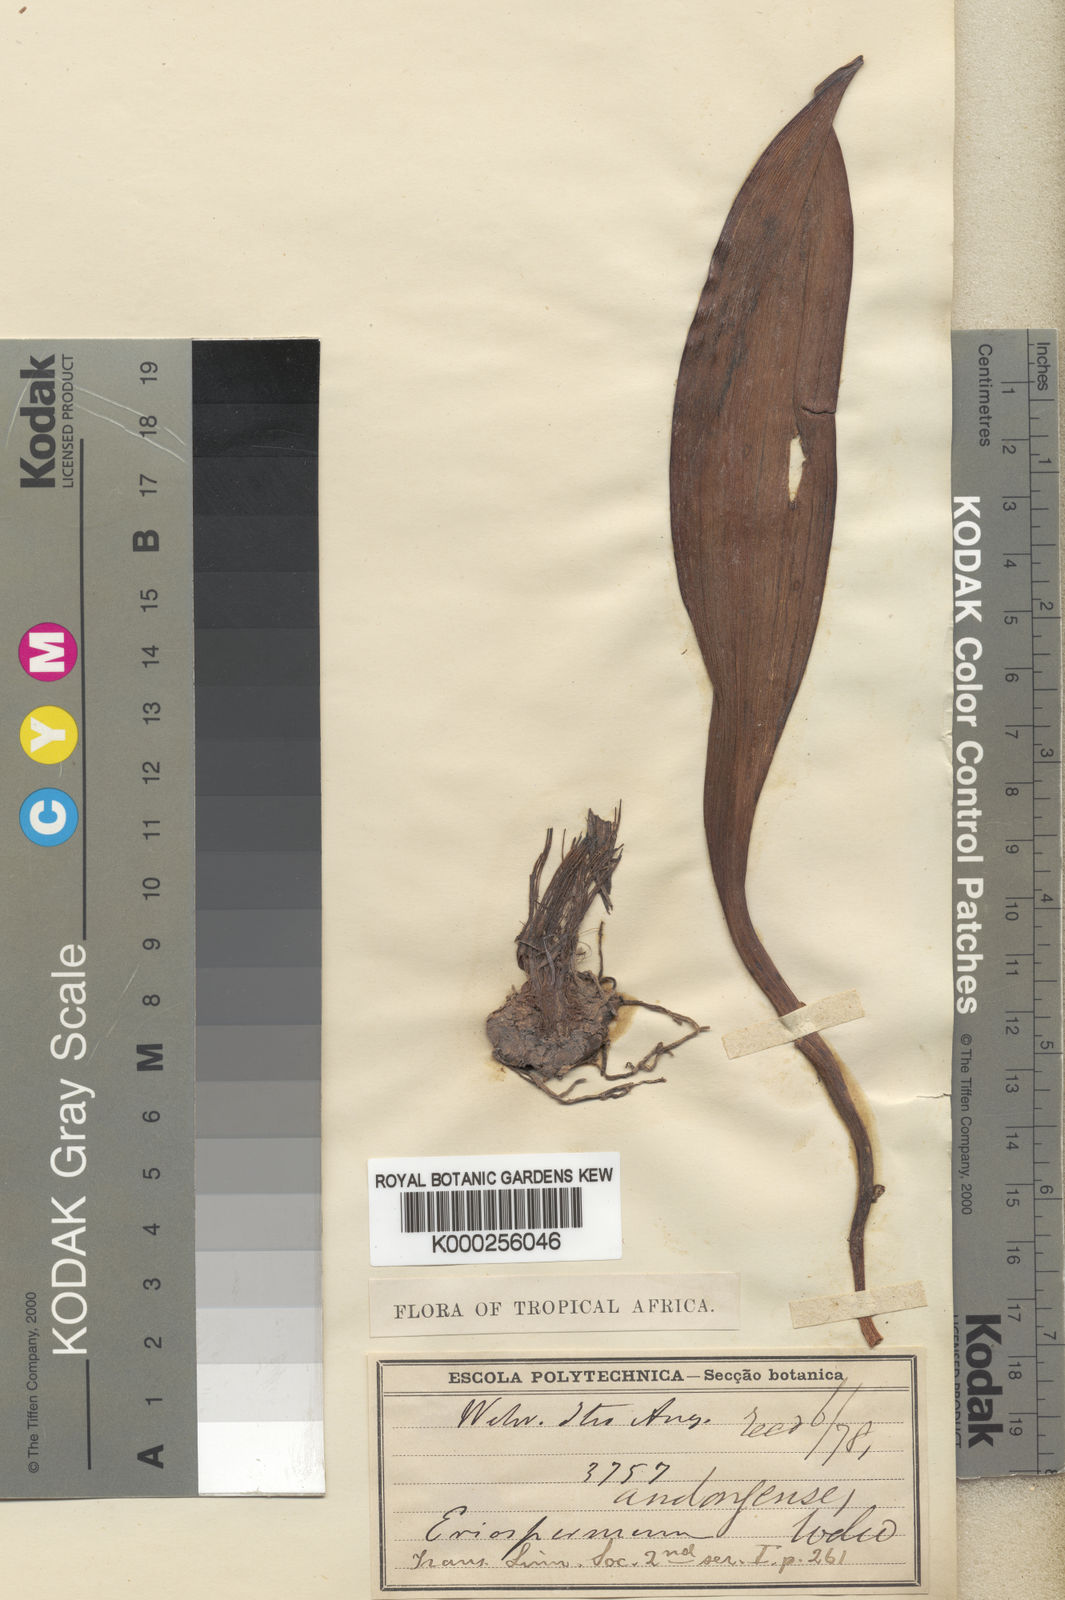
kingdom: Plantae
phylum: Tracheophyta
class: Liliopsida
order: Asparagales
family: Asparagaceae
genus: Eriospermum
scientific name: Eriospermum andongense
